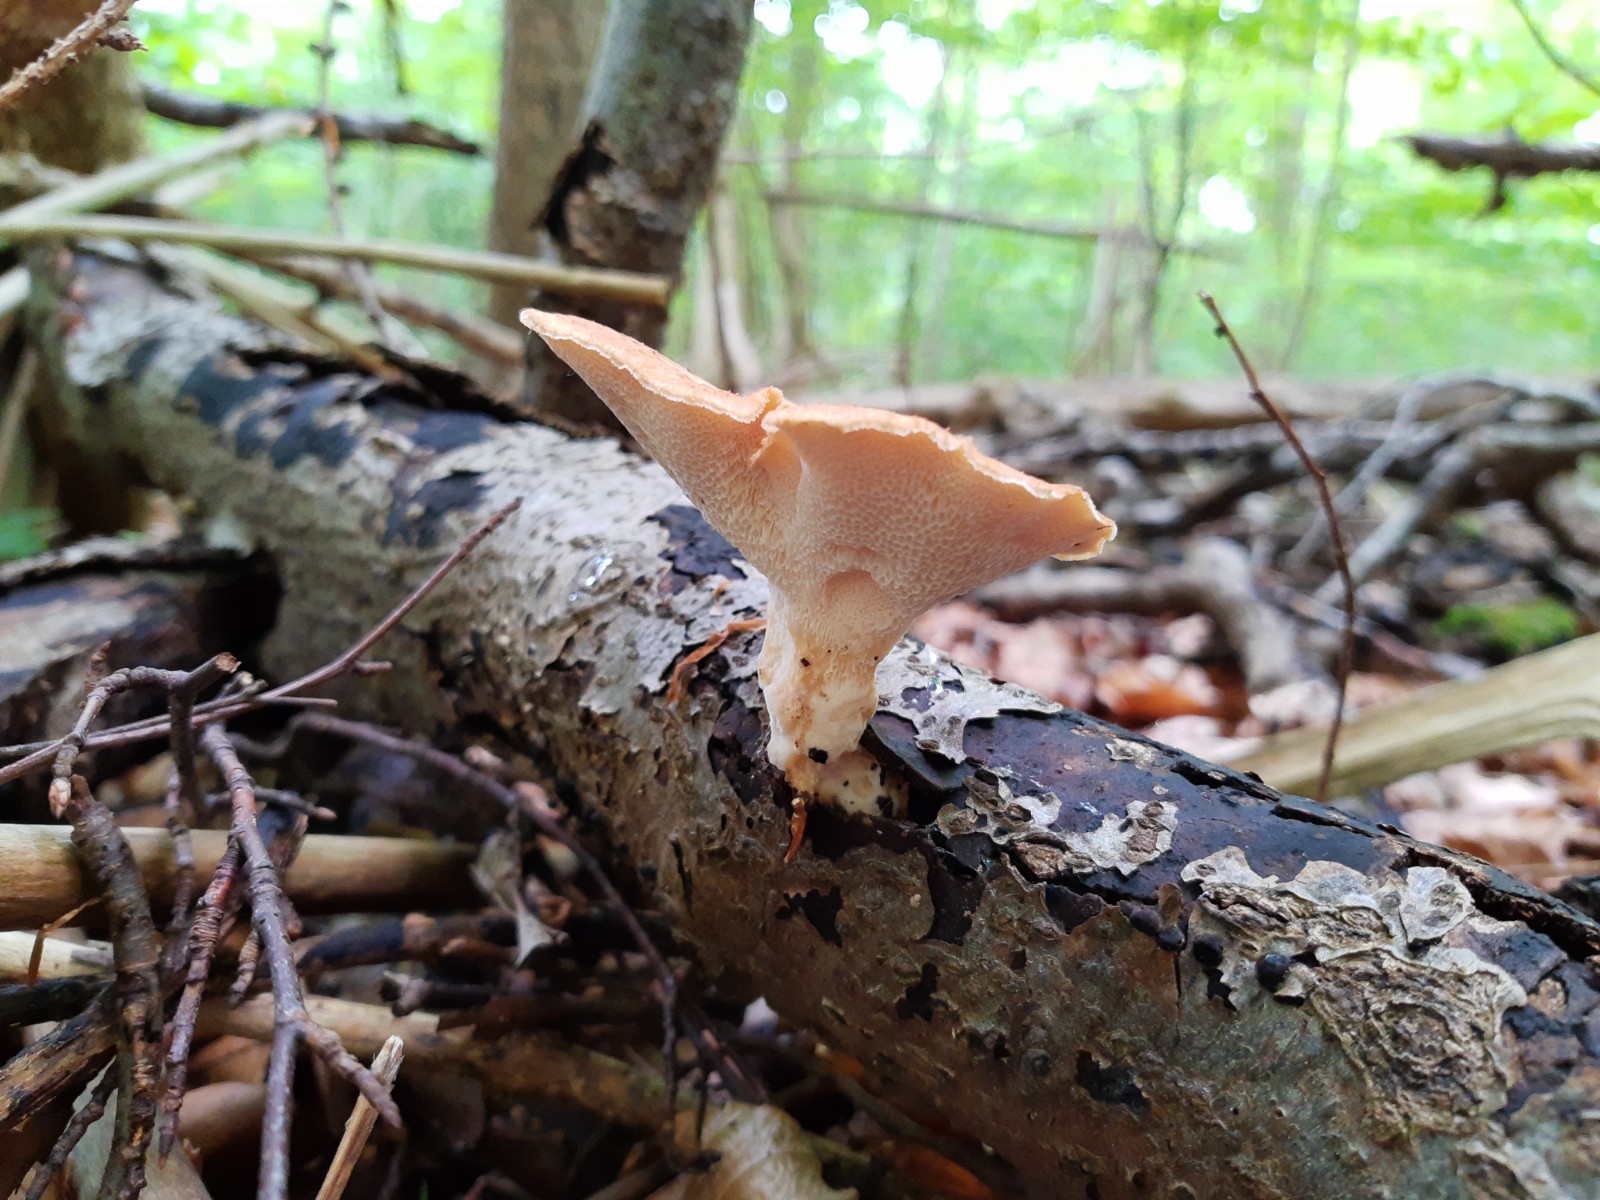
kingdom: Fungi
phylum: Basidiomycota
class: Agaricomycetes
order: Polyporales
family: Polyporaceae
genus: Polyporus
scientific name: Polyporus tuberaster
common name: knoldet stilkporesvamp
